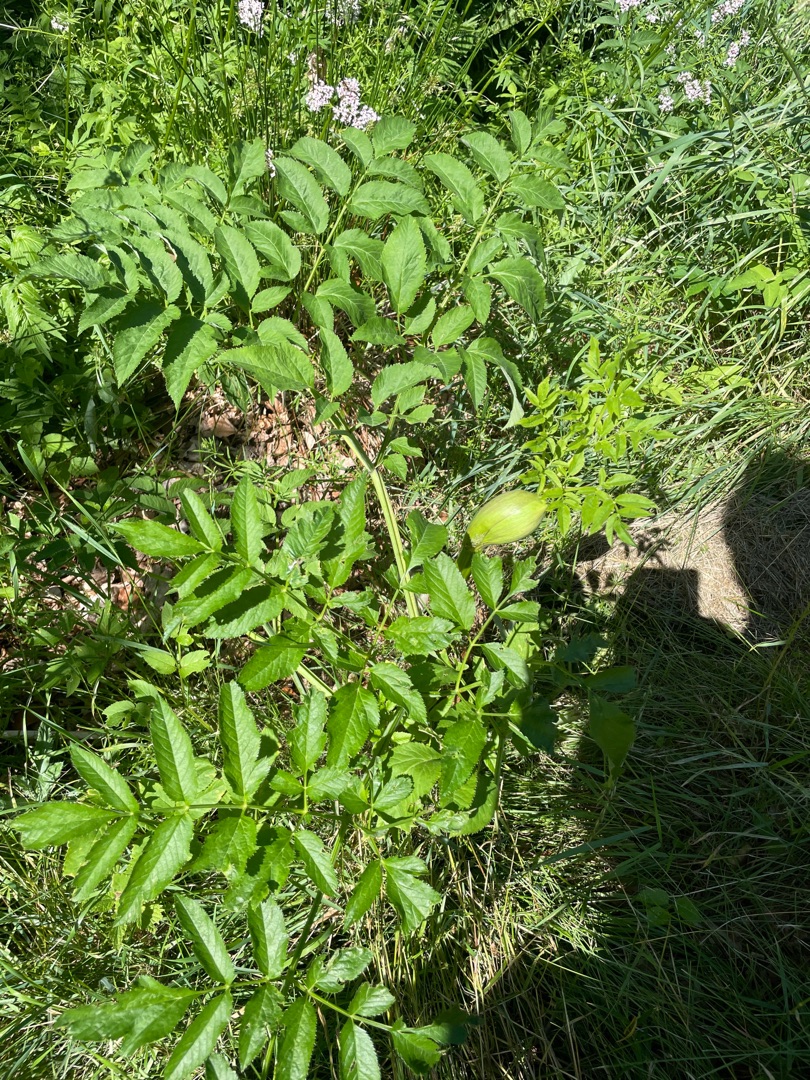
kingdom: Plantae
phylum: Tracheophyta
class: Magnoliopsida
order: Apiales
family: Apiaceae
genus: Angelica
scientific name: Angelica sylvestris
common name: Angelik
